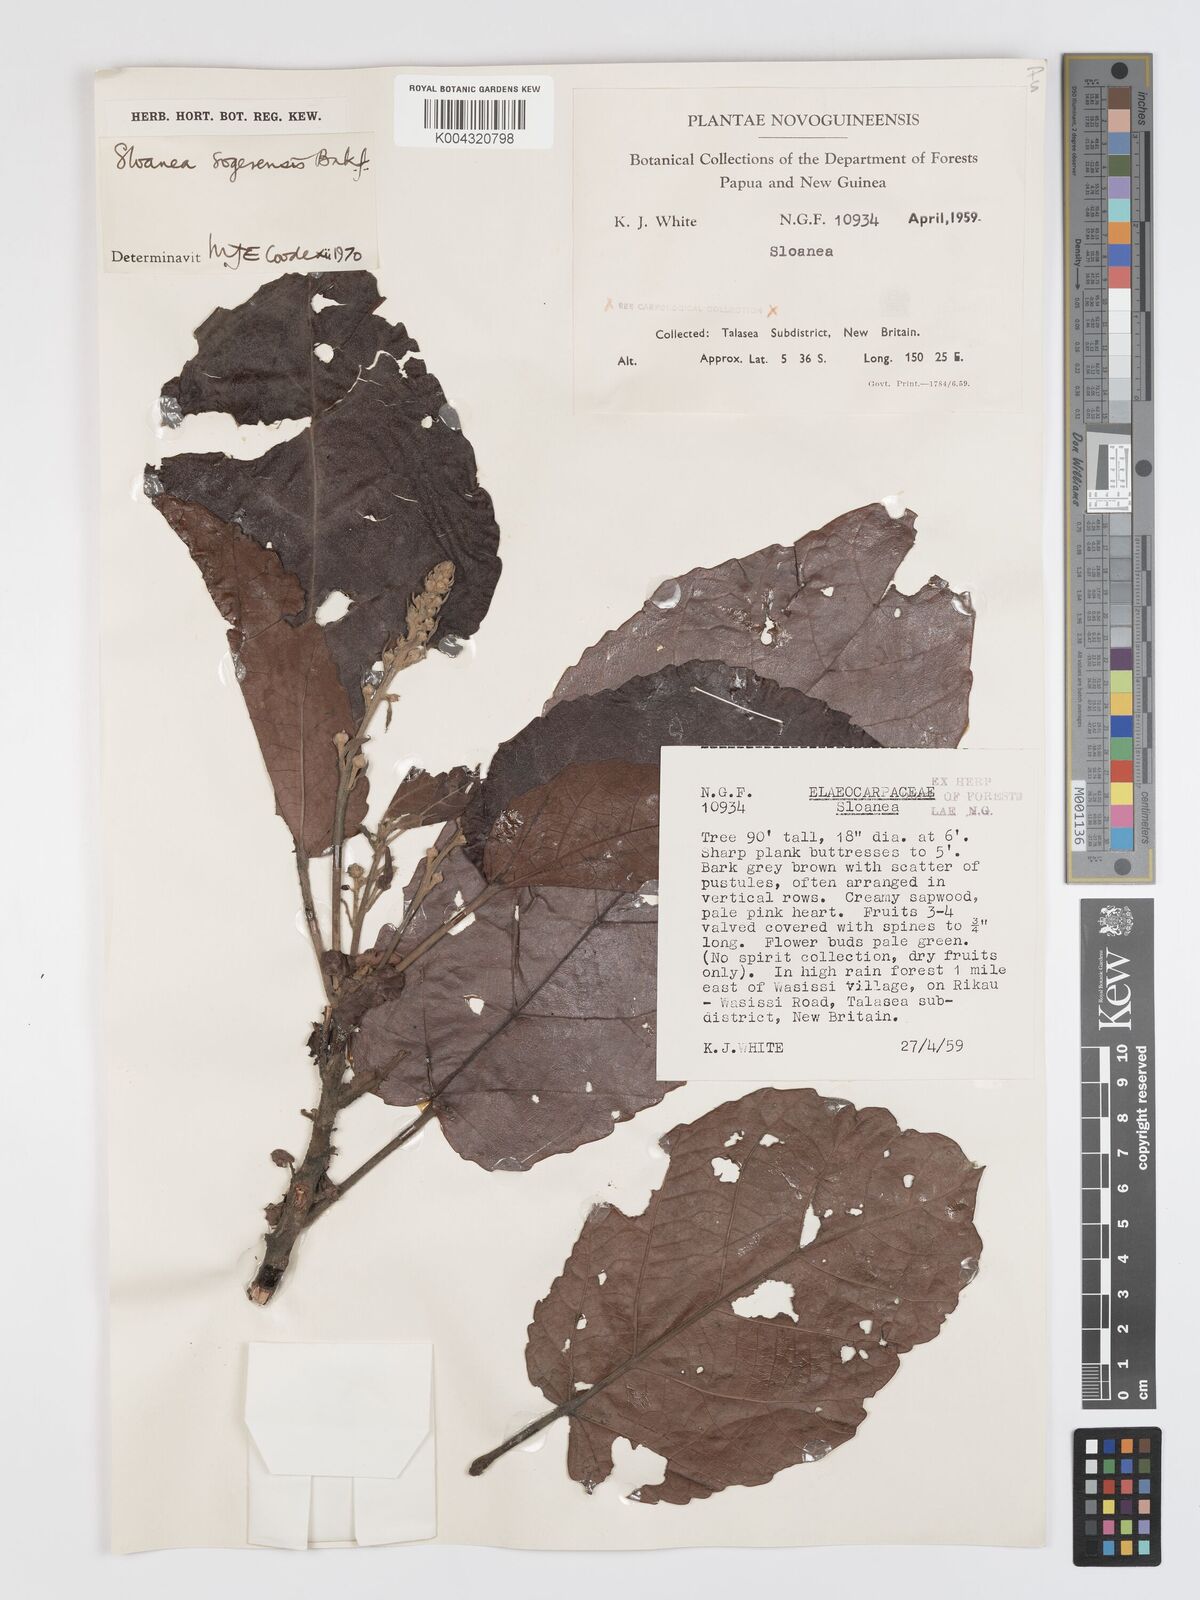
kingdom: Plantae
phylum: Tracheophyta
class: Magnoliopsida
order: Oxalidales
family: Elaeocarpaceae
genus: Sloanea
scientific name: Sloanea sogerensis
